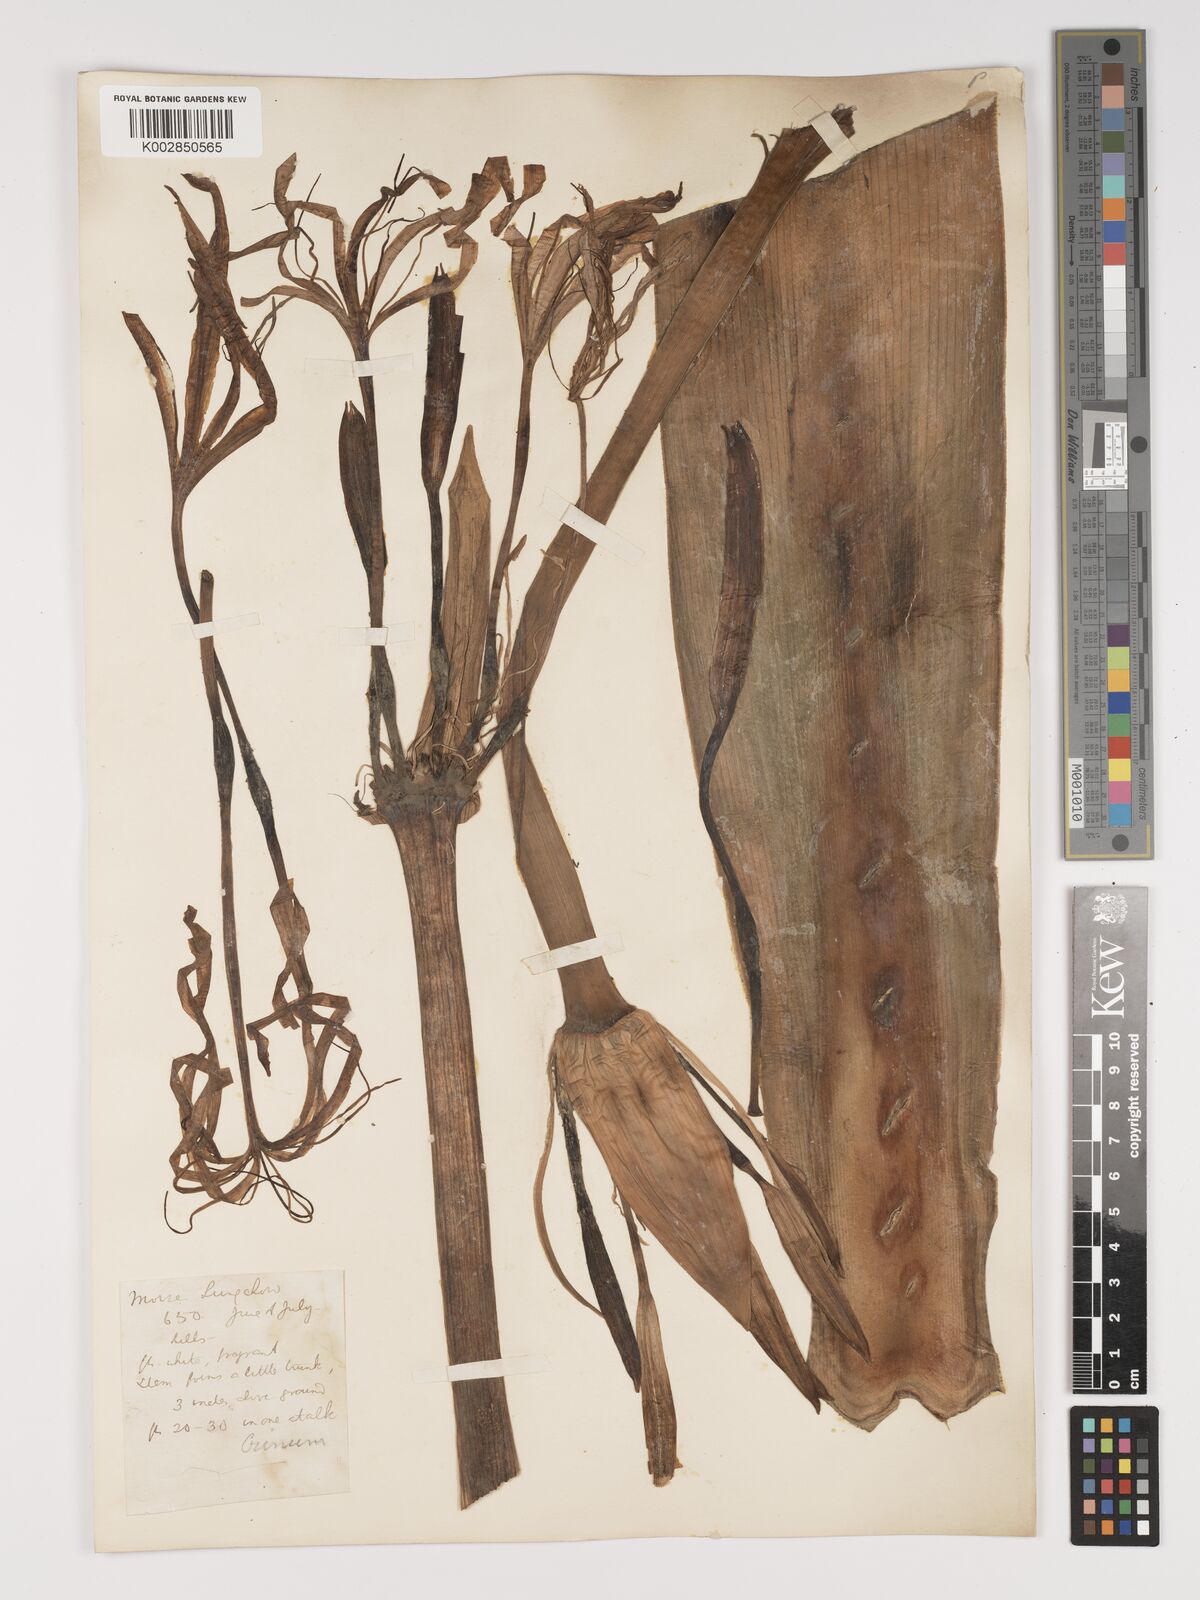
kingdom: Plantae
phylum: Tracheophyta
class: Liliopsida
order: Asparagales
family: Amaryllidaceae
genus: Crinum
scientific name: Crinum asiaticum
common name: Poisonbulb
